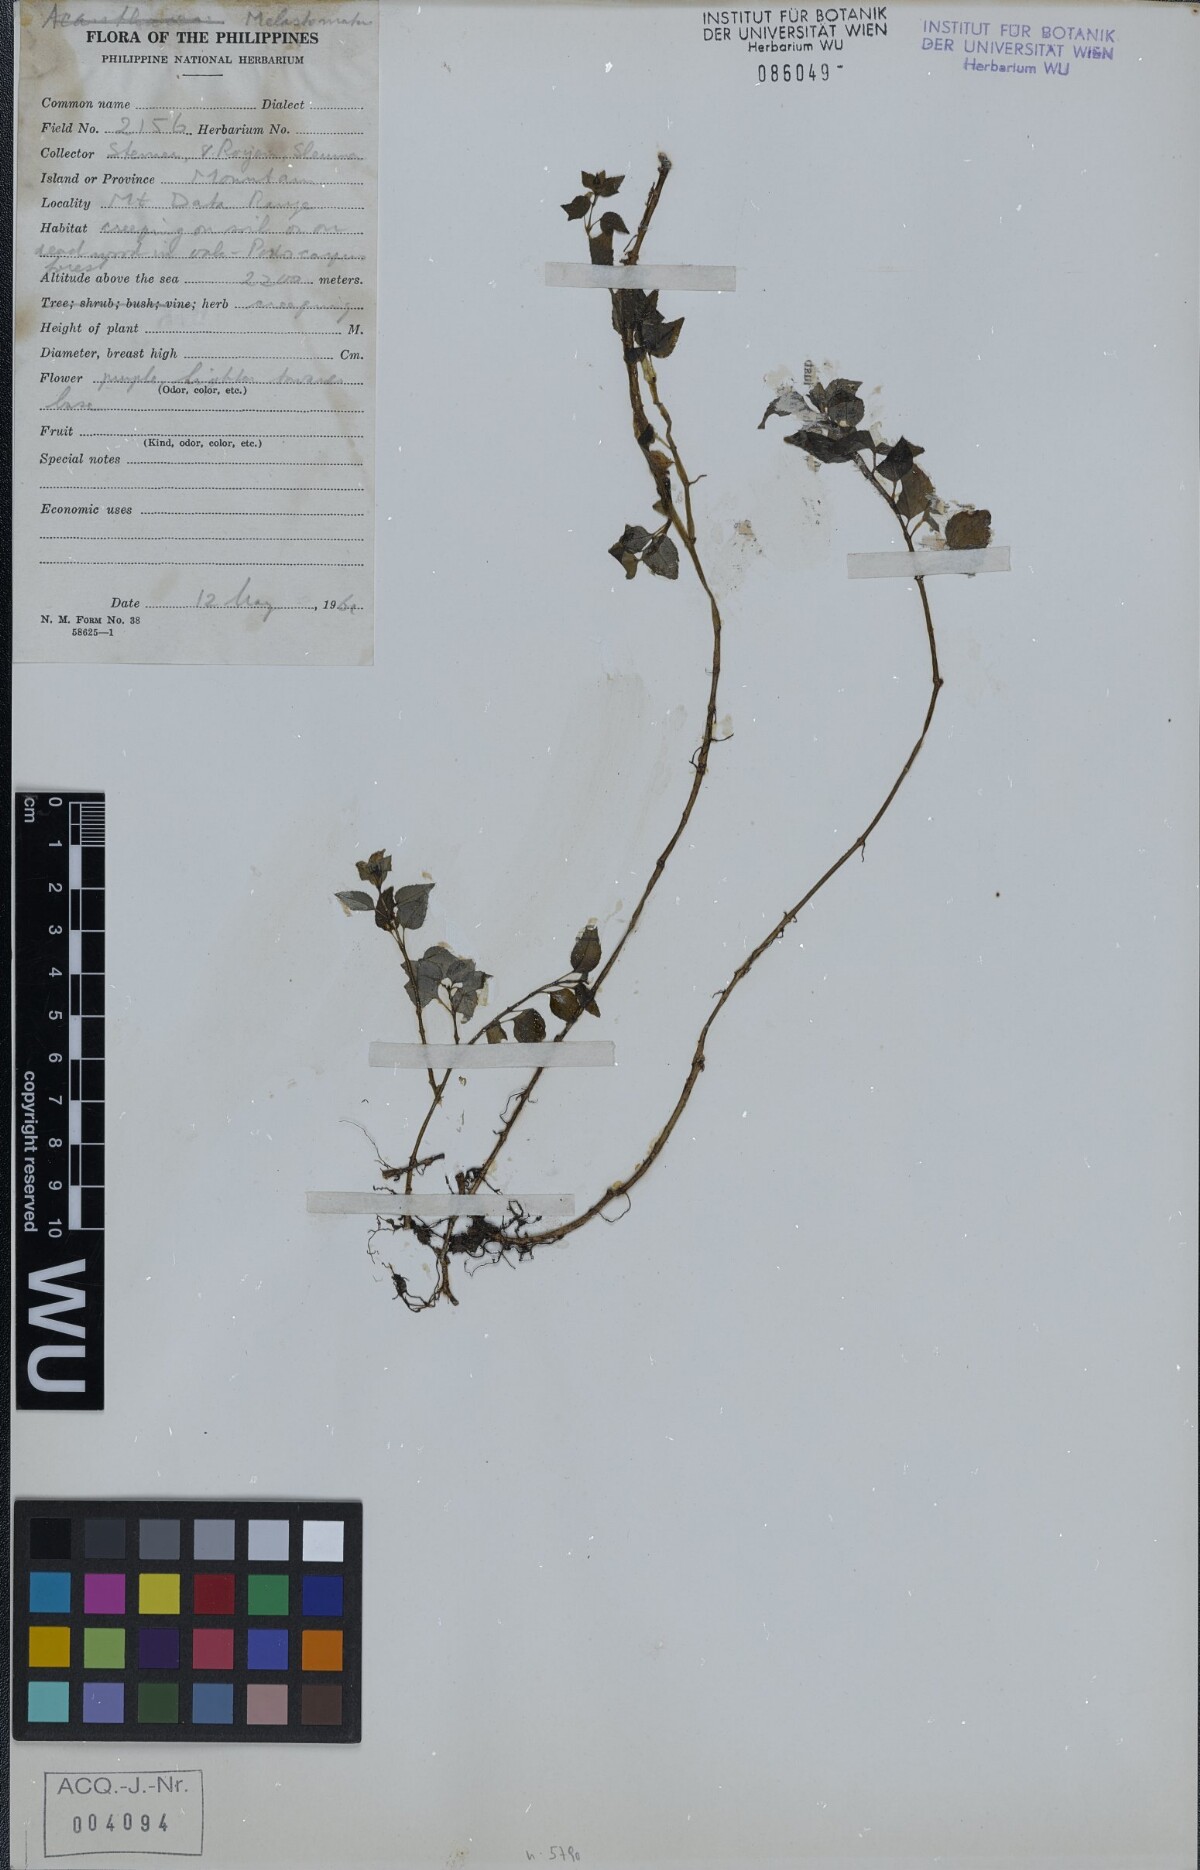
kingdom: Plantae
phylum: Tracheophyta
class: Magnoliopsida
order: Myrtales
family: Melastomataceae
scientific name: Melastomataceae
